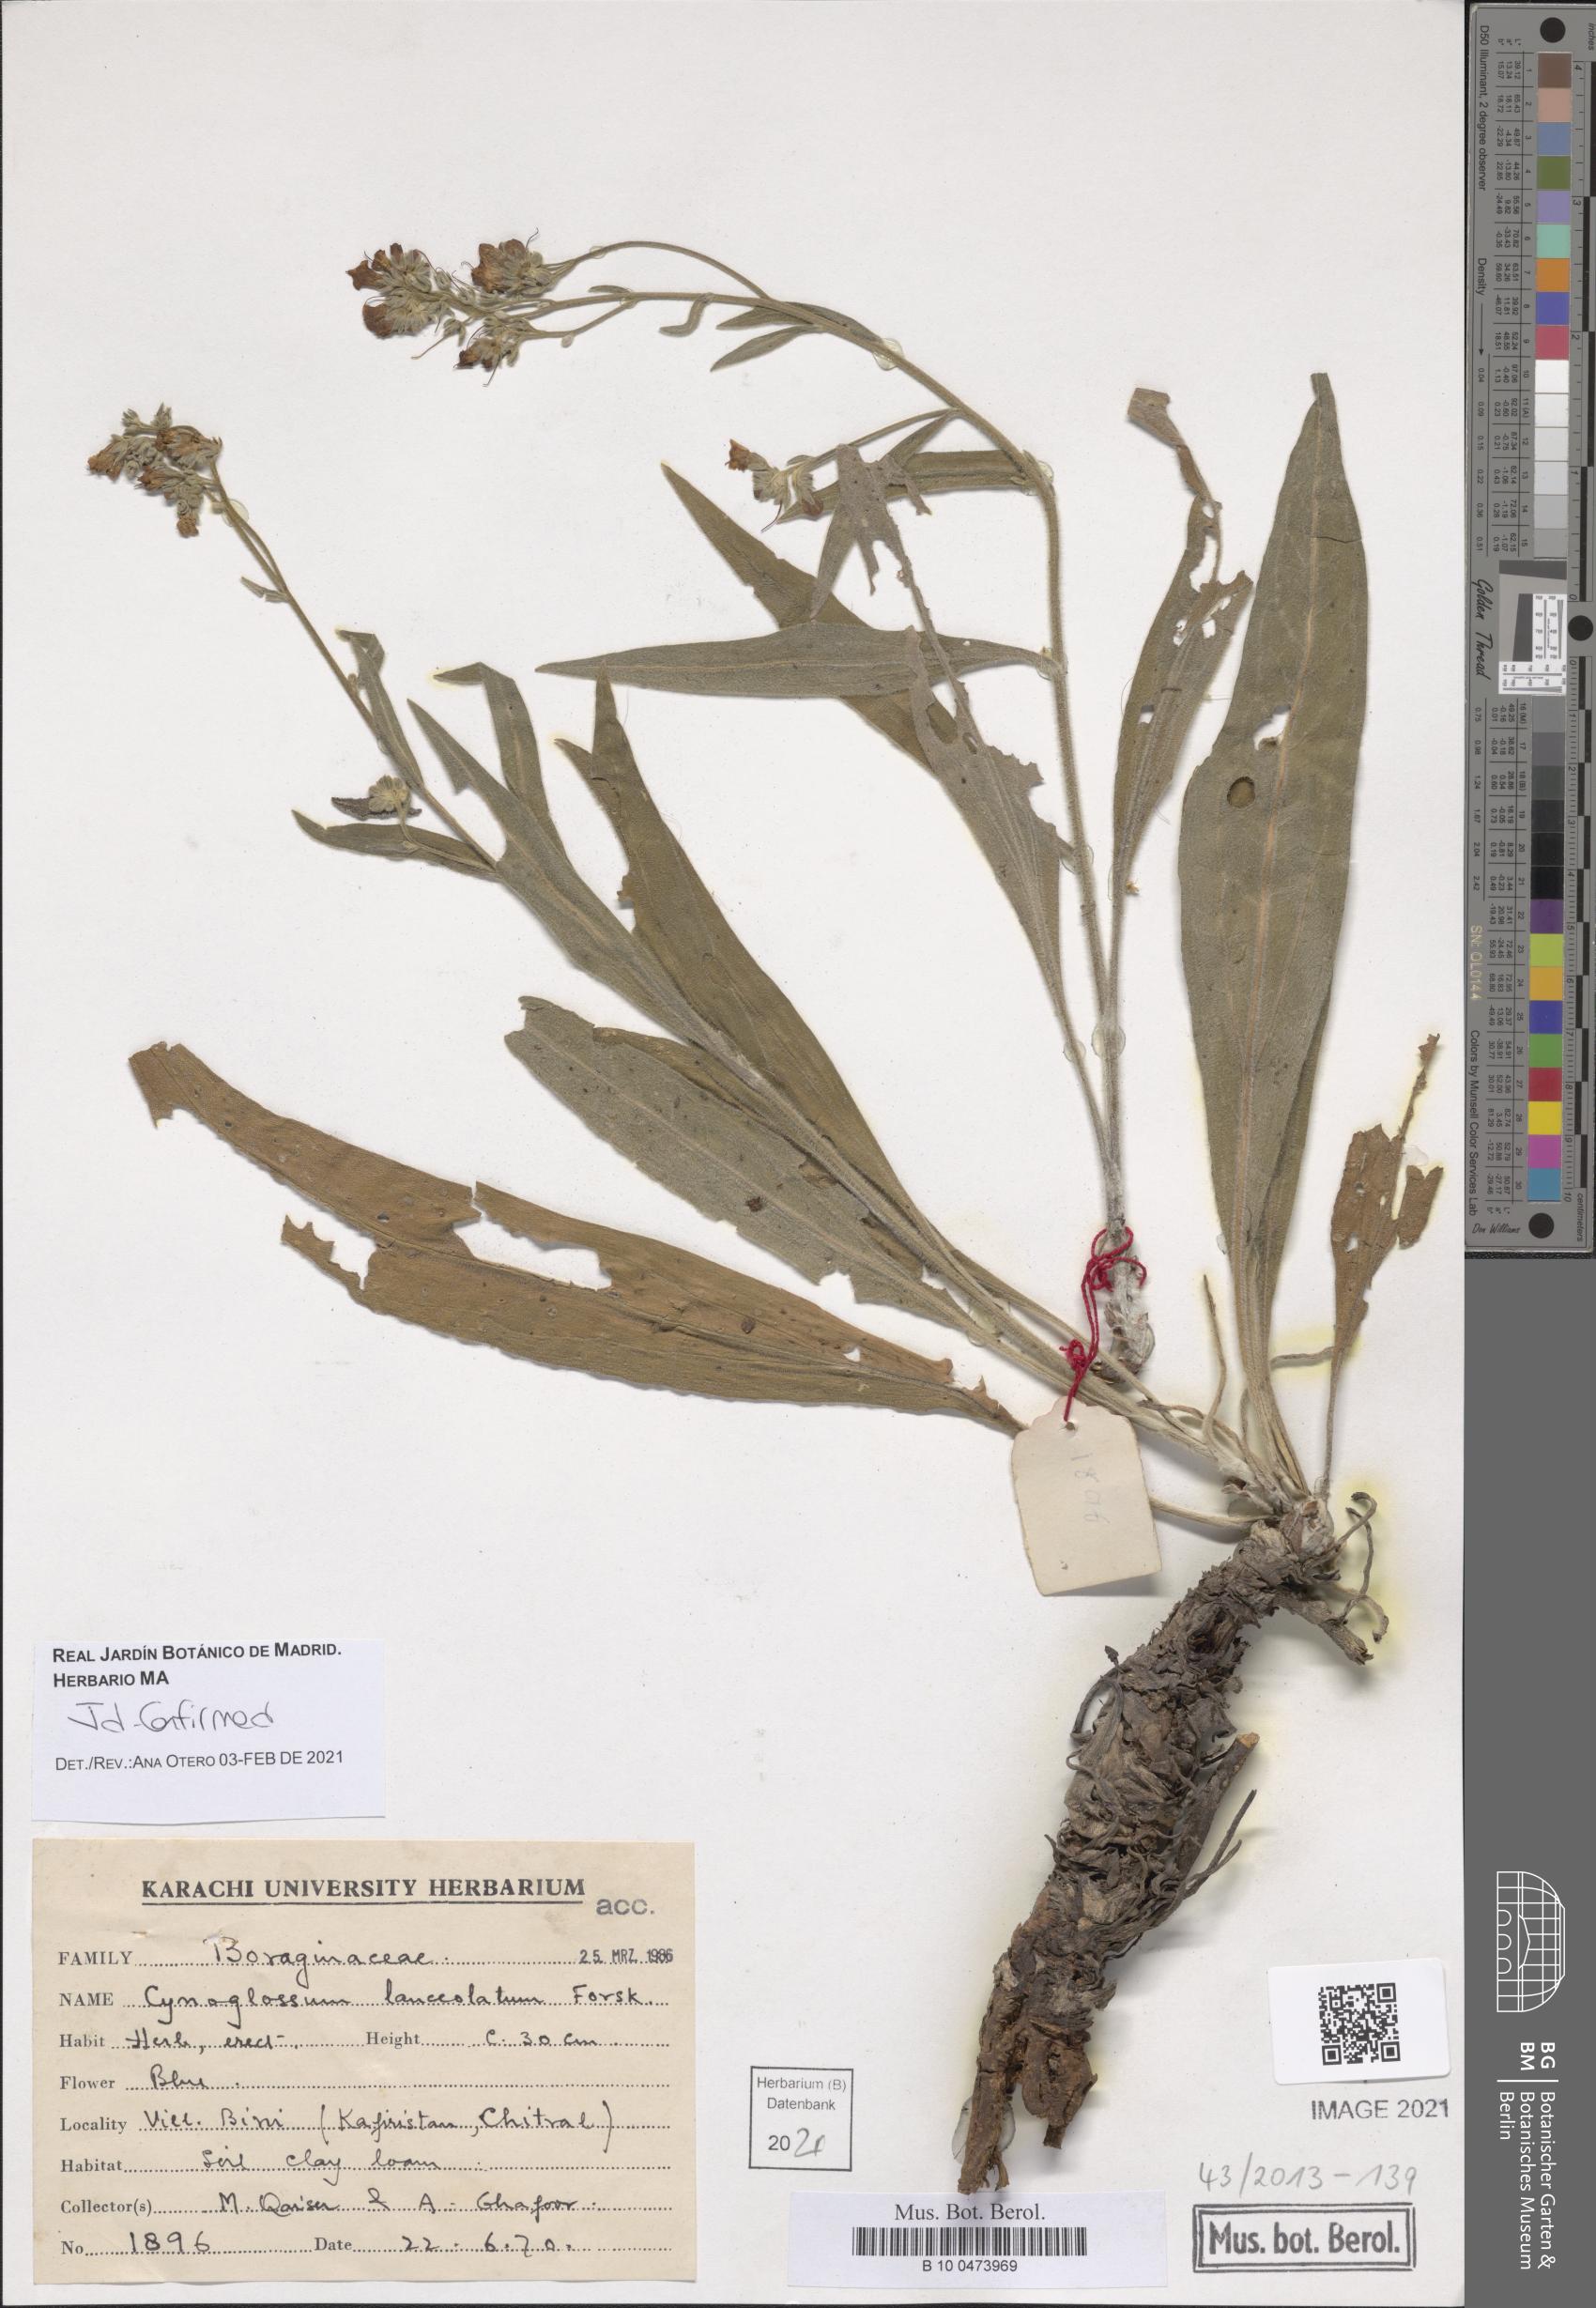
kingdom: Plantae
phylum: Tracheophyta
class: Magnoliopsida
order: Boraginales
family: Boraginaceae
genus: Paracynoglossum
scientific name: Paracynoglossum lanceolatum
